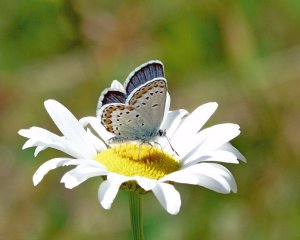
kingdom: Animalia
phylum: Arthropoda
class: Insecta
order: Lepidoptera
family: Lycaenidae
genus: Lycaeides
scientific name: Lycaeides melissa
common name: Melissa Blue
